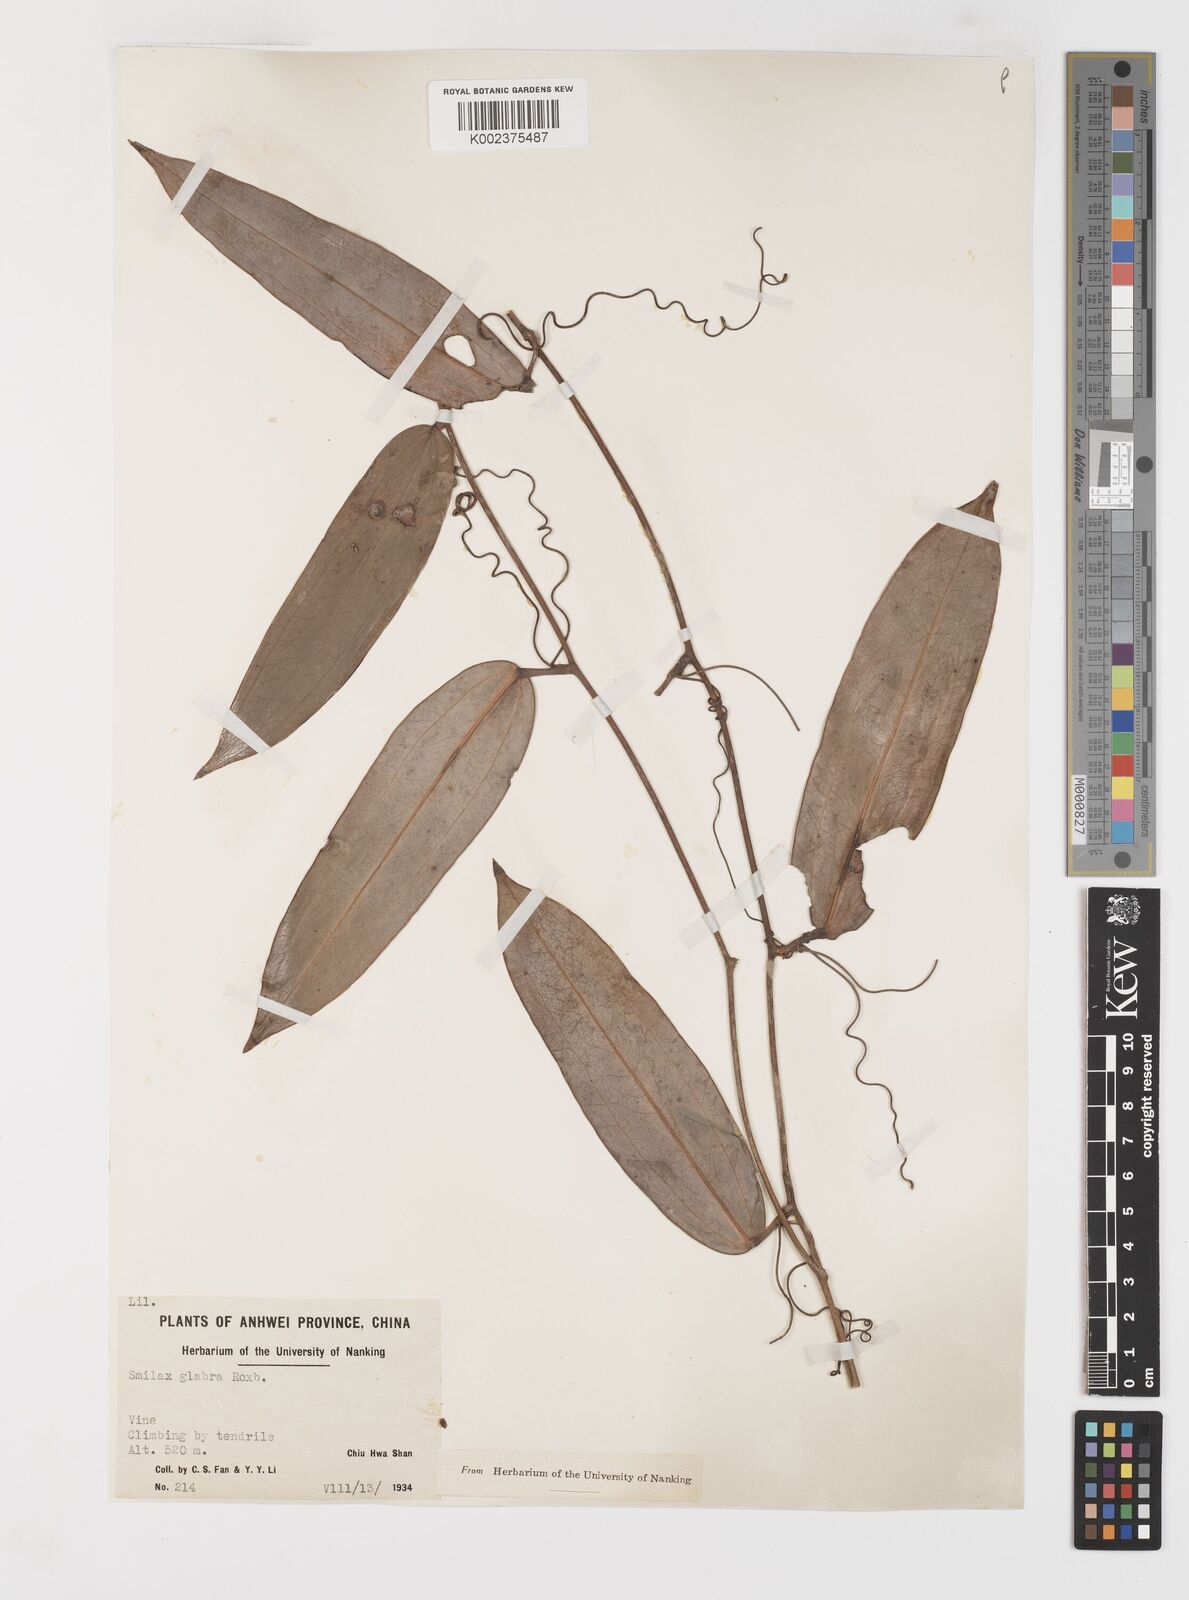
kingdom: Plantae
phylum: Tracheophyta
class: Liliopsida
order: Liliales
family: Smilacaceae
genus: Smilax
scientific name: Smilax glabra
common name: Chinese smilax
